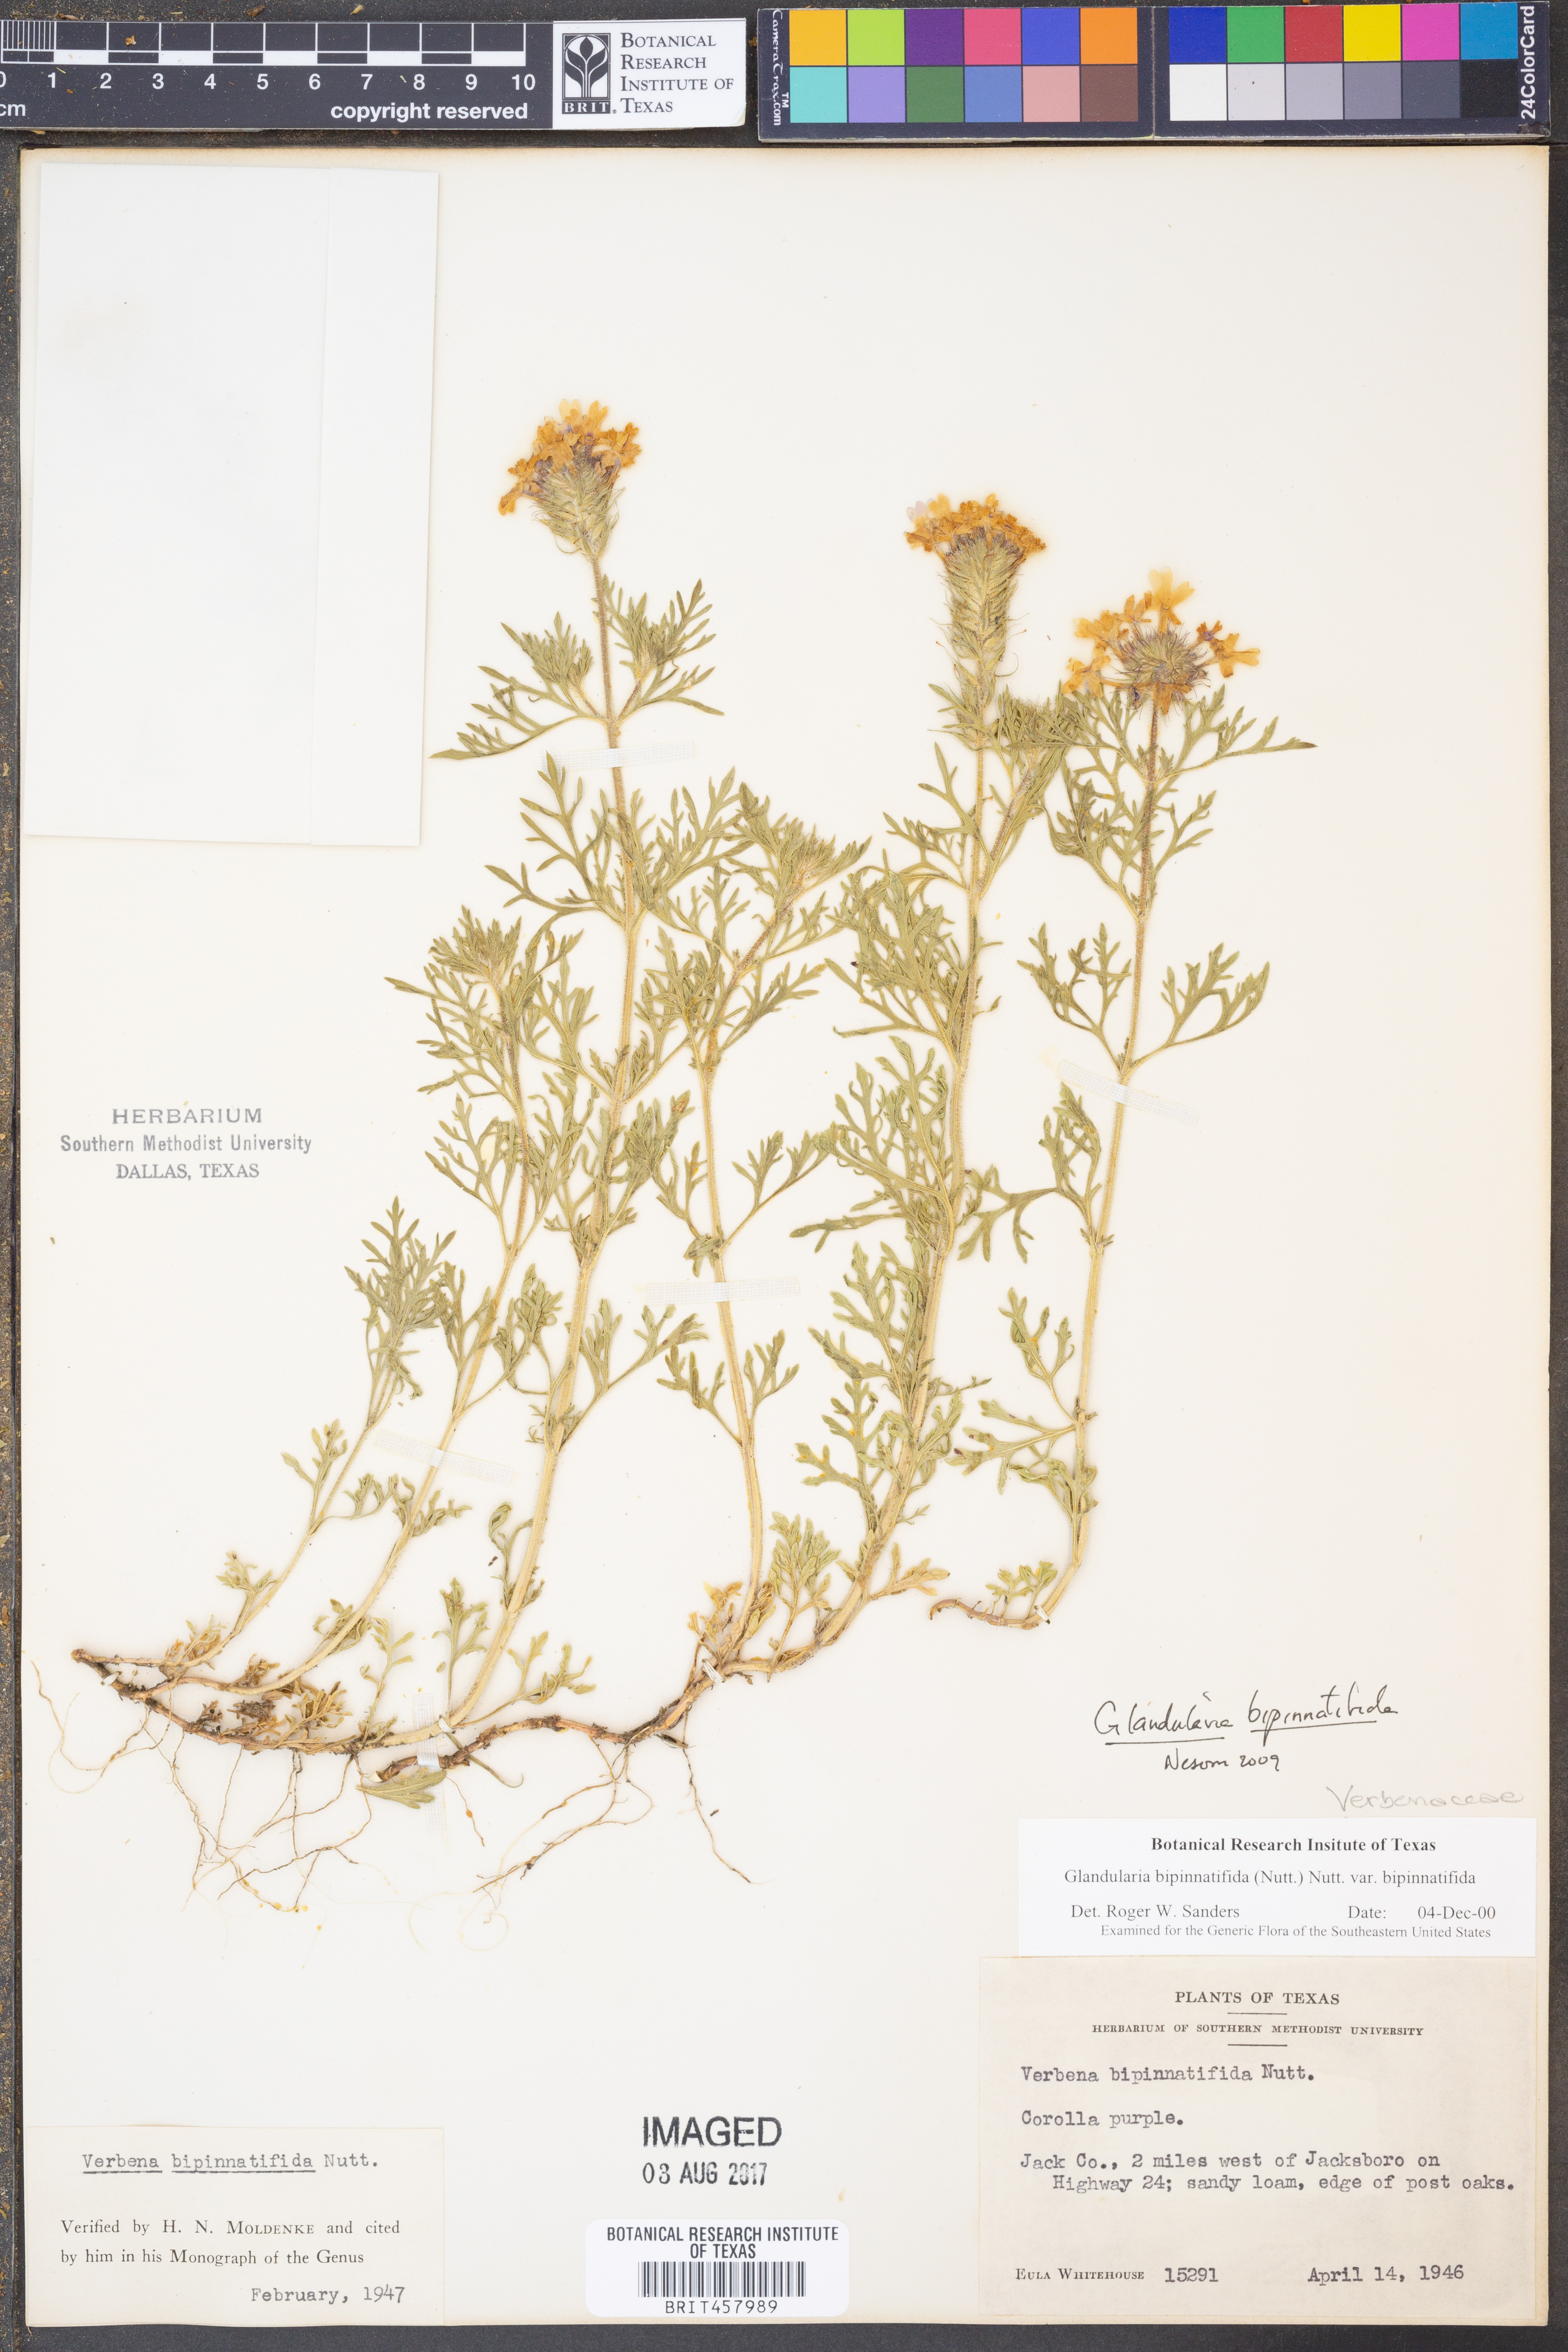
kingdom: Plantae
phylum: Tracheophyta
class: Magnoliopsida
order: Lamiales
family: Verbenaceae
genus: Verbena
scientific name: Verbena bipinnatifida
